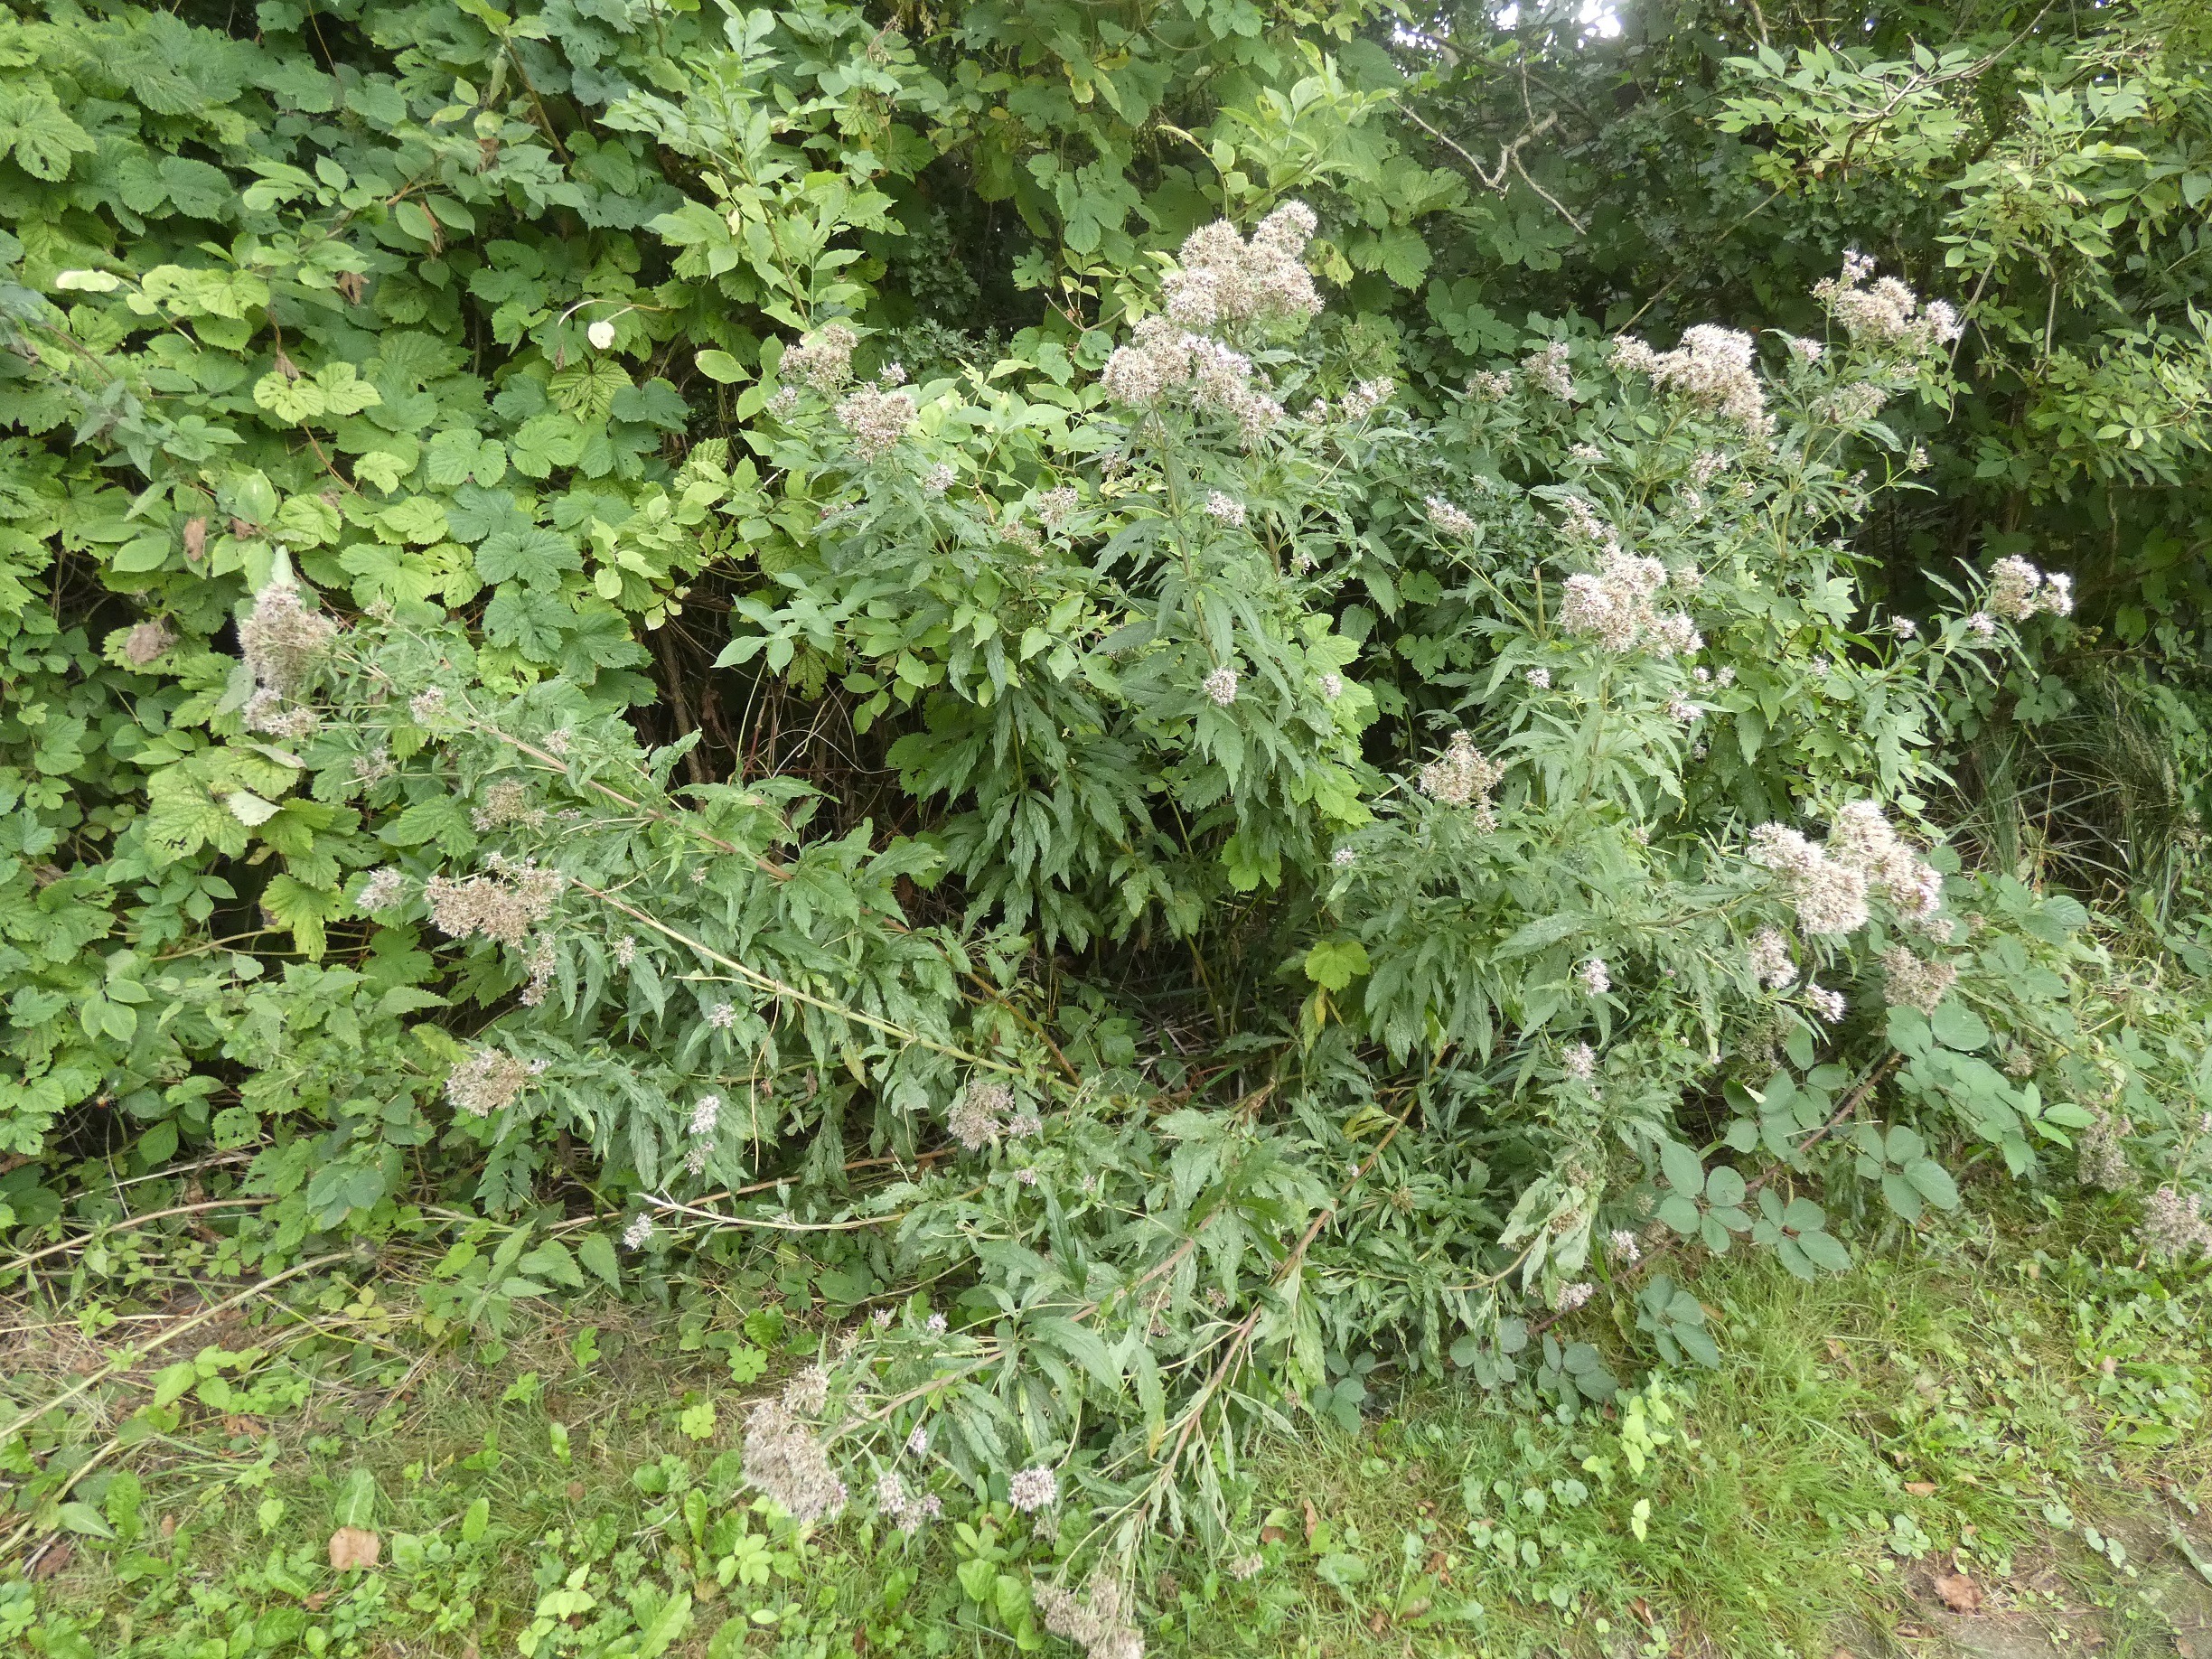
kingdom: Plantae
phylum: Tracheophyta
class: Magnoliopsida
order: Asterales
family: Asteraceae
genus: Eupatorium
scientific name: Eupatorium cannabinum
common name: Hjortetrøst
